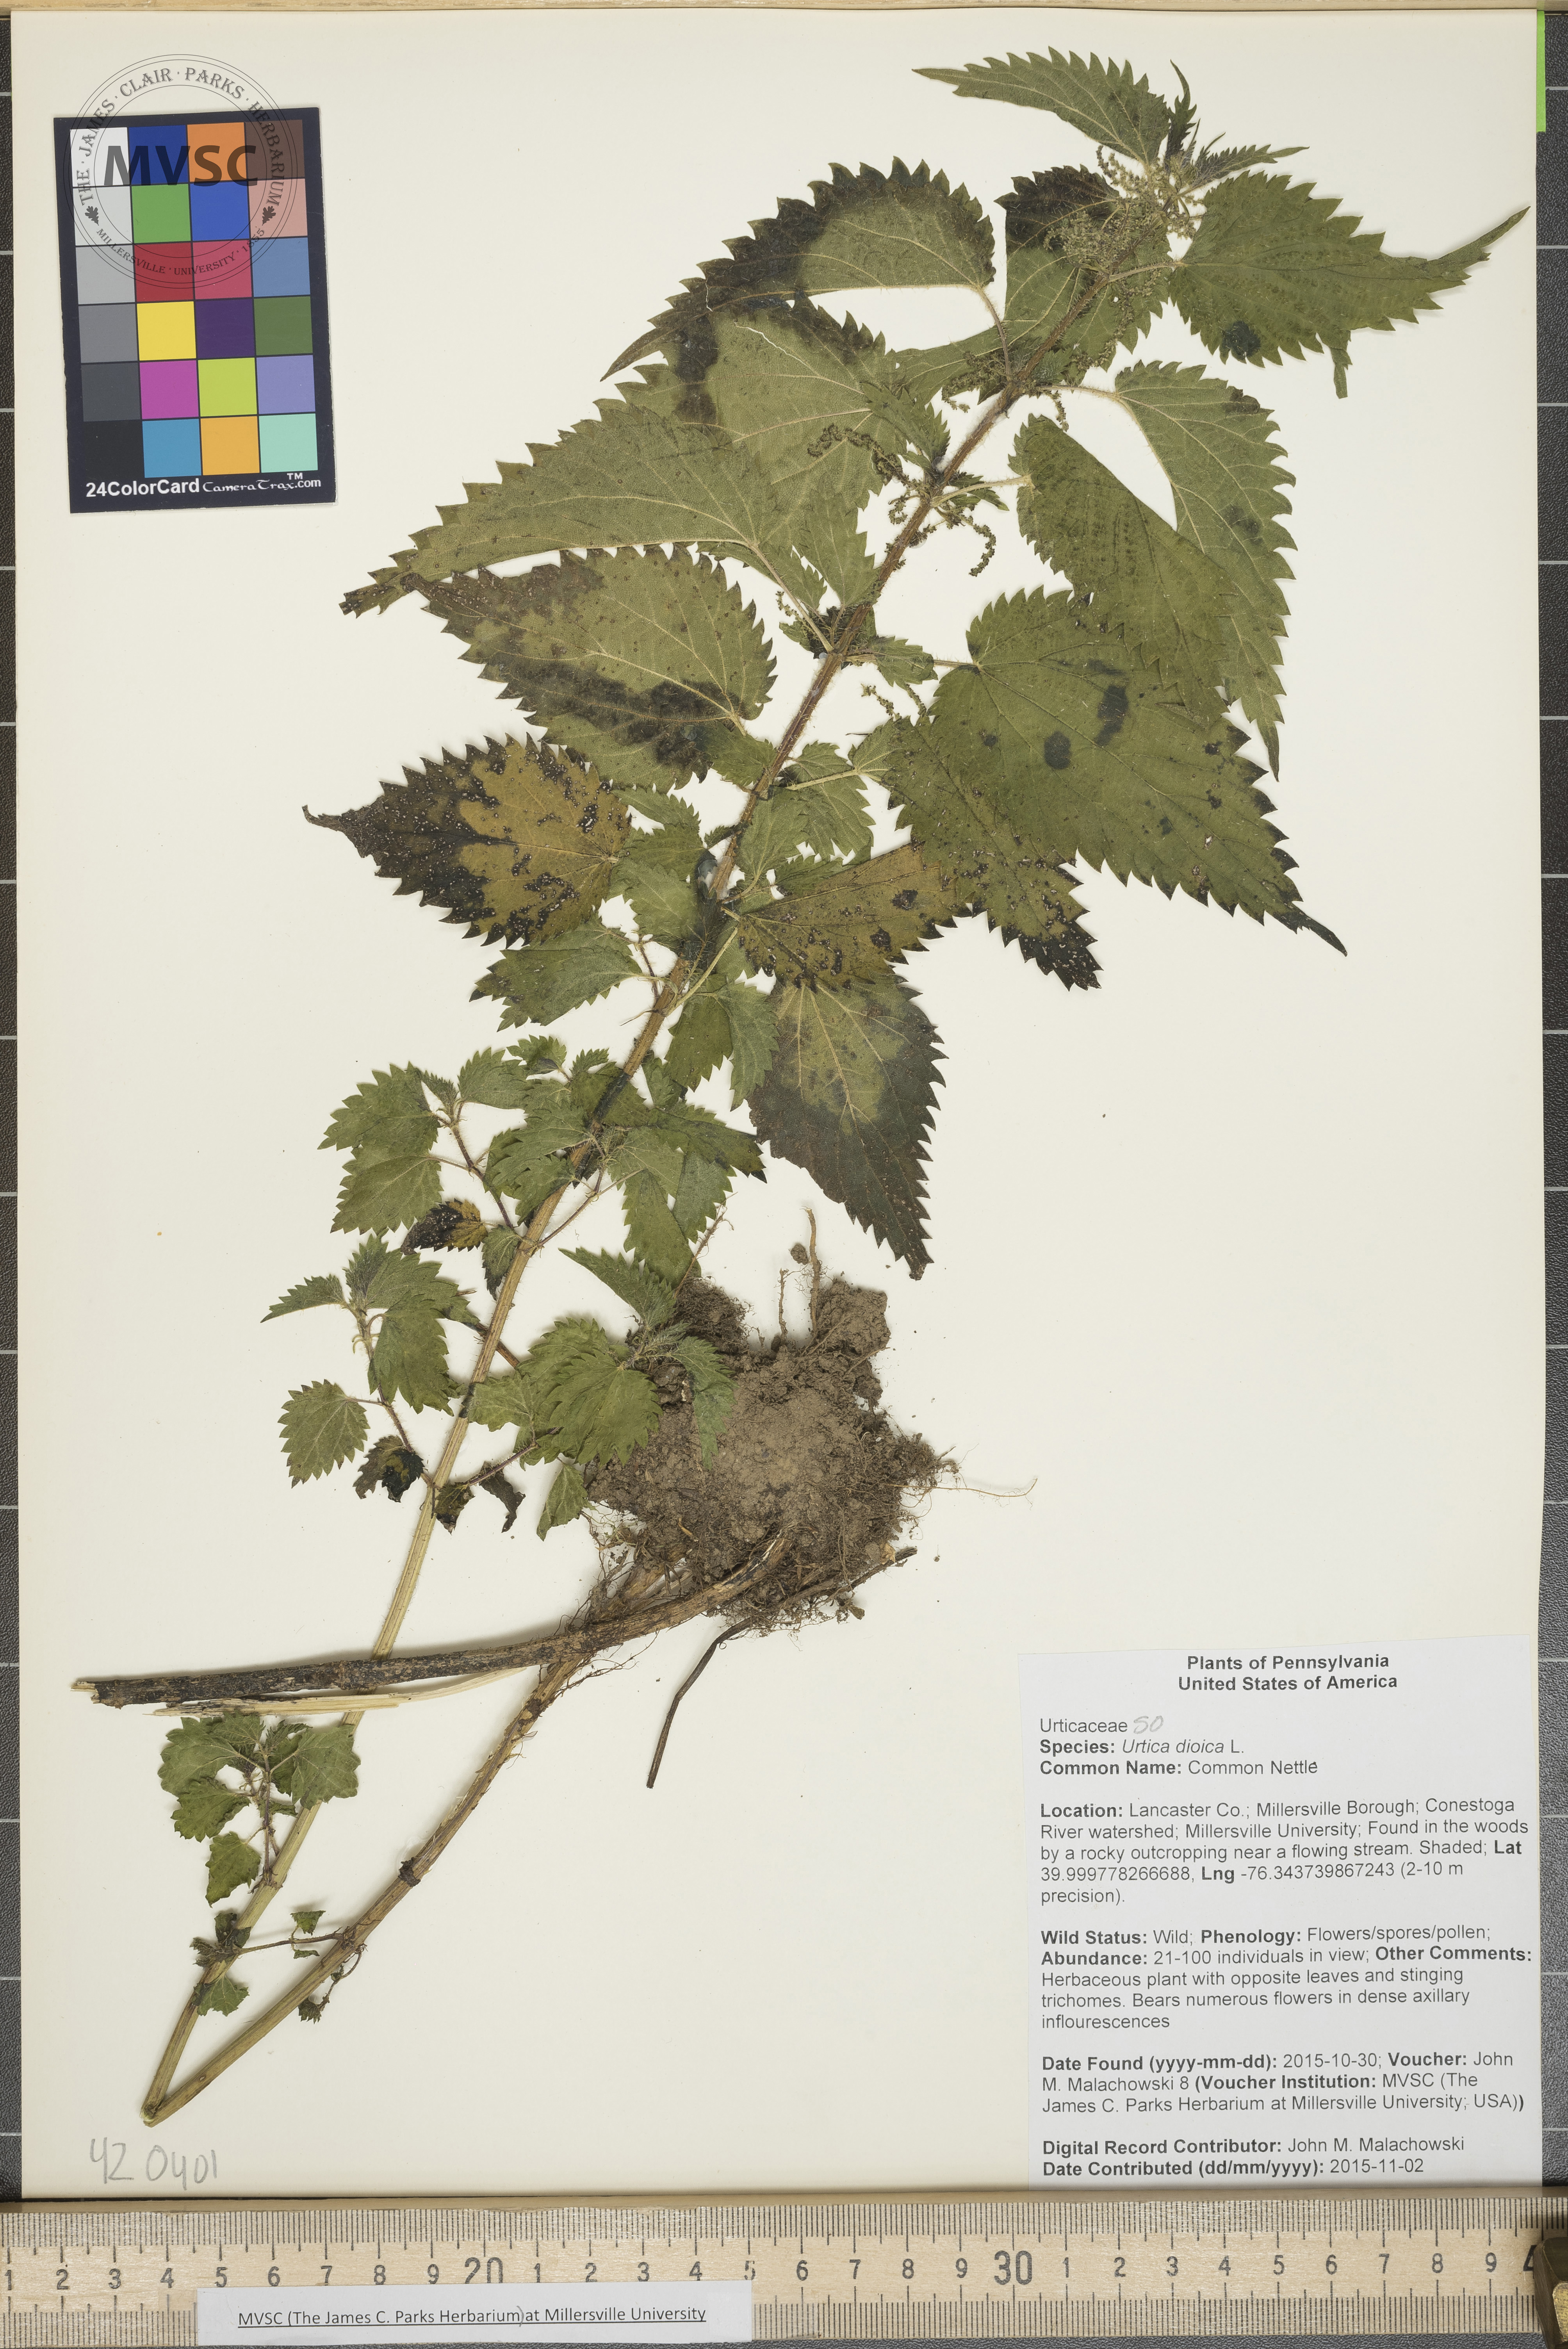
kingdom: Plantae
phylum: Tracheophyta
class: Magnoliopsida
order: Rosales
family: Urticaceae
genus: Urtica
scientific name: Urtica dioica
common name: Common Nettle
